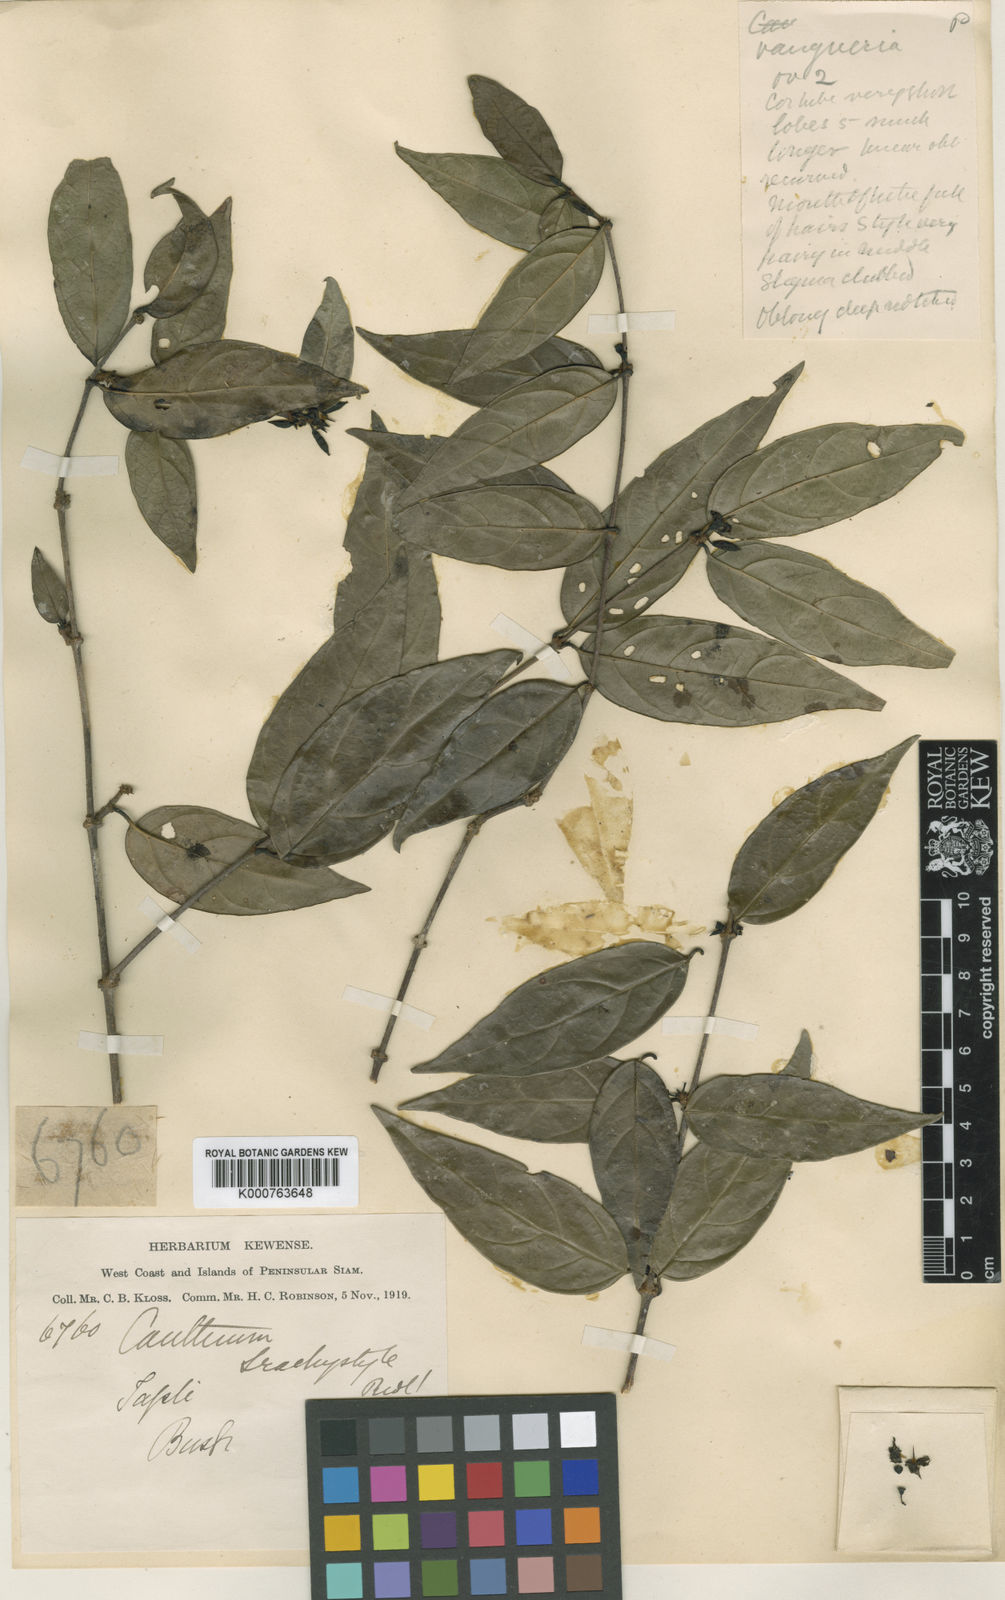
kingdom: Plantae
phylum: Tracheophyta
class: Magnoliopsida
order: Gentianales
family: Rubiaceae
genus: Canthium
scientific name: Canthium angustifolium
